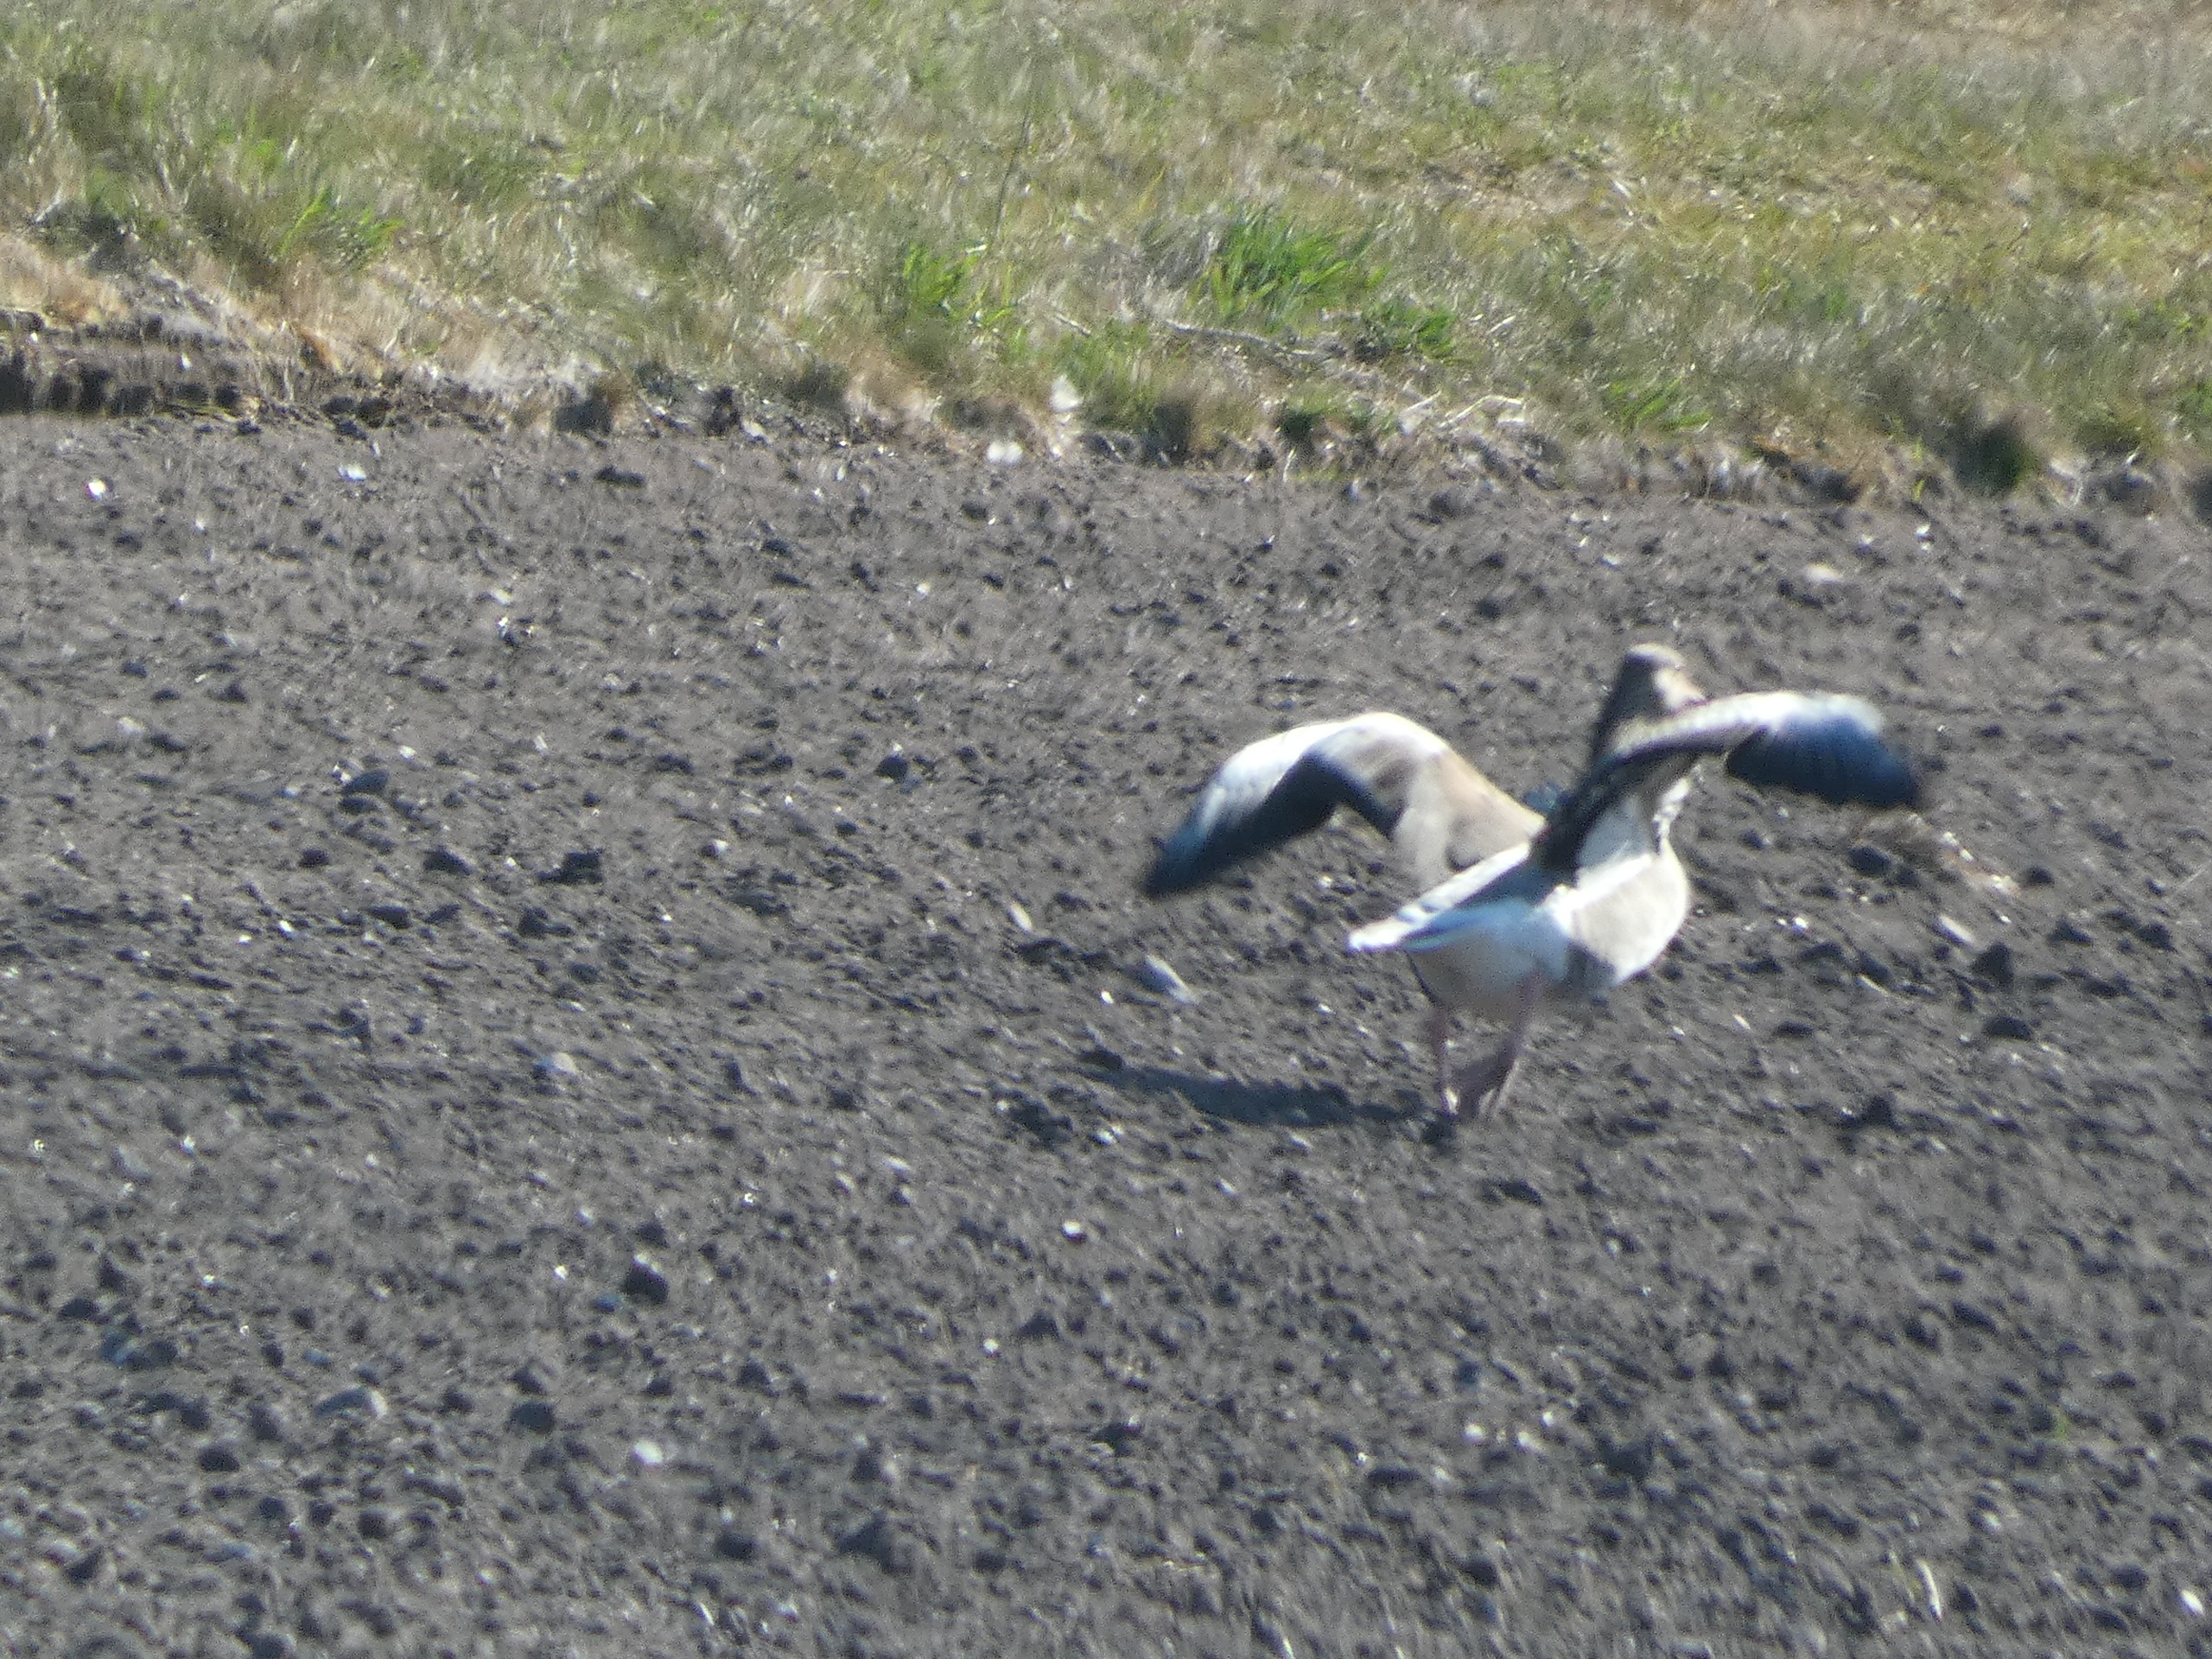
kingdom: Animalia
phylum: Chordata
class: Aves
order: Anseriformes
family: Anatidae
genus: Anser
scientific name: Anser anser
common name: Grågås
